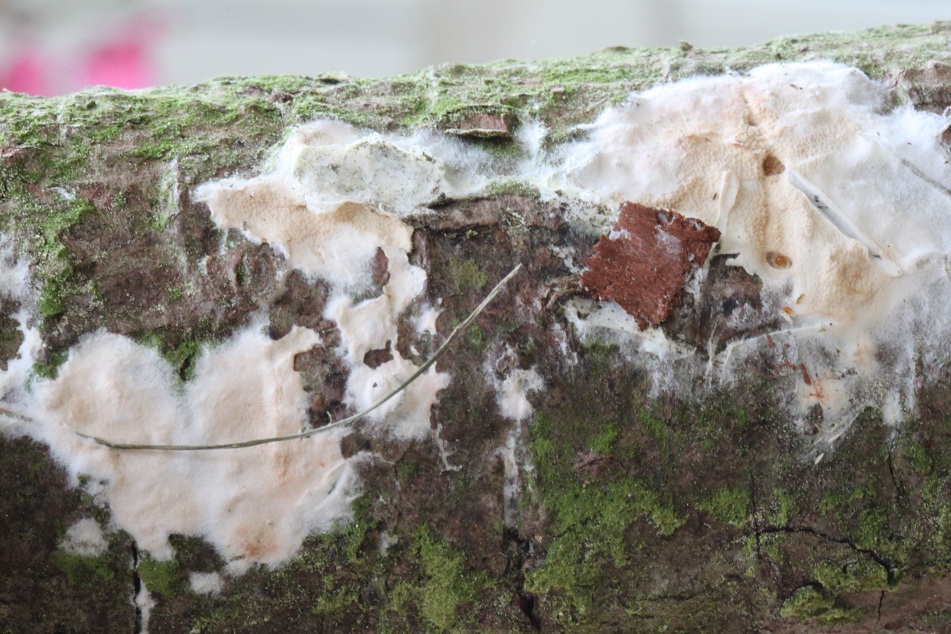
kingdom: Fungi
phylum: Basidiomycota
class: Agaricomycetes
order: Polyporales
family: Irpicaceae
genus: Meruliopsis
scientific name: Meruliopsis taxicola
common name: purpurbrun foldporesvamp
